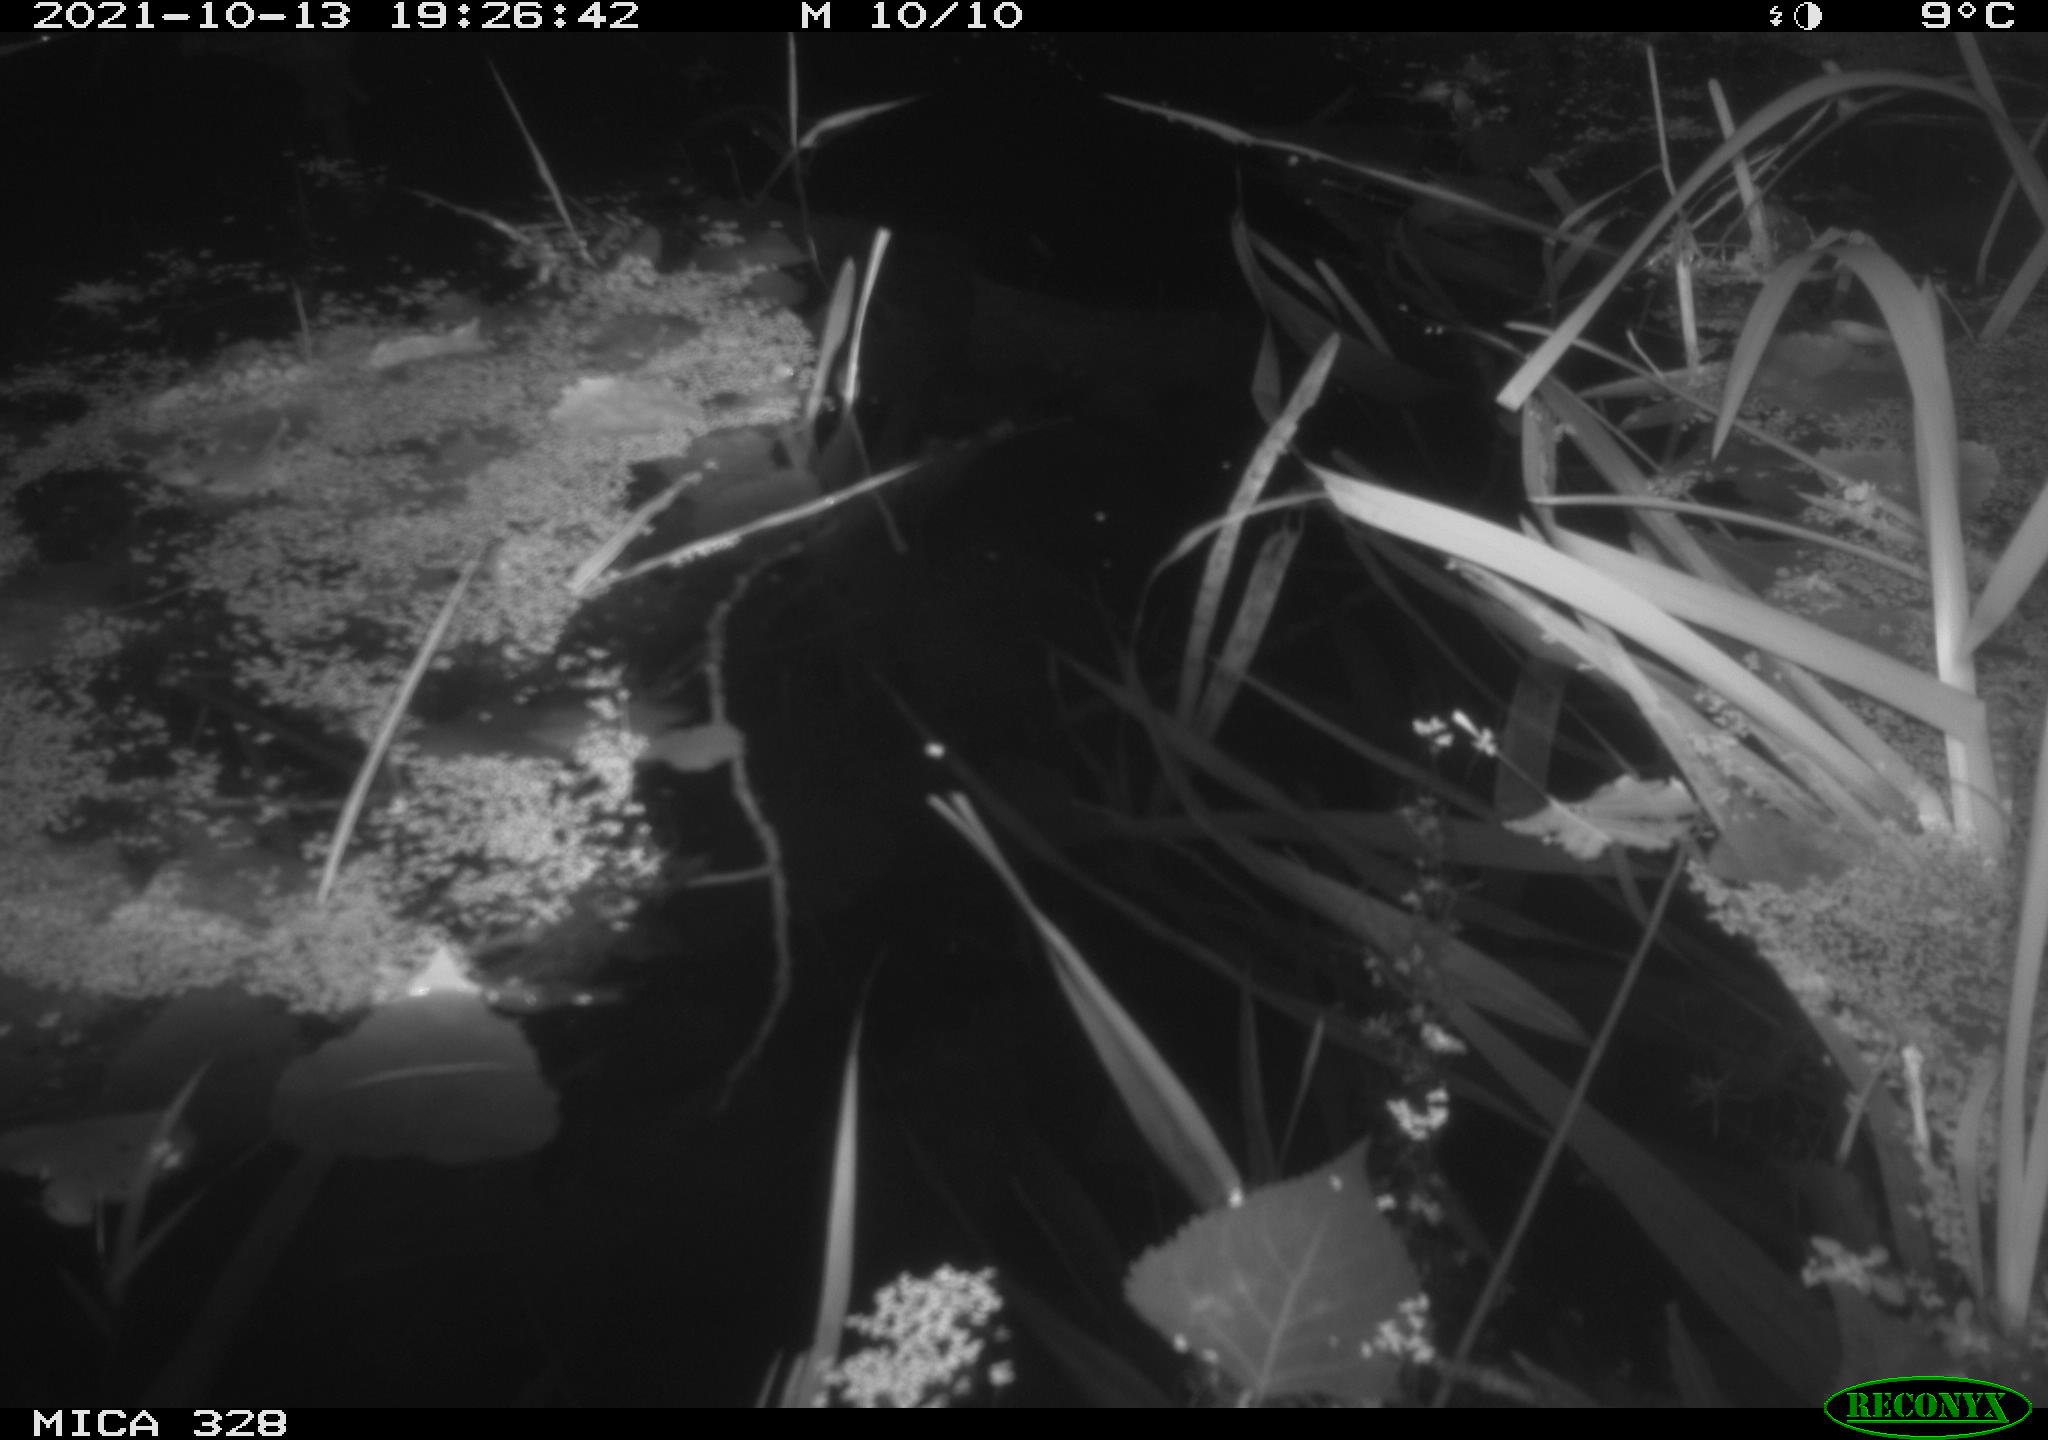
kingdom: Animalia
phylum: Chordata
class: Mammalia
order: Rodentia
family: Cricetidae
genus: Ondatra
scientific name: Ondatra zibethicus
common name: Muskrat
